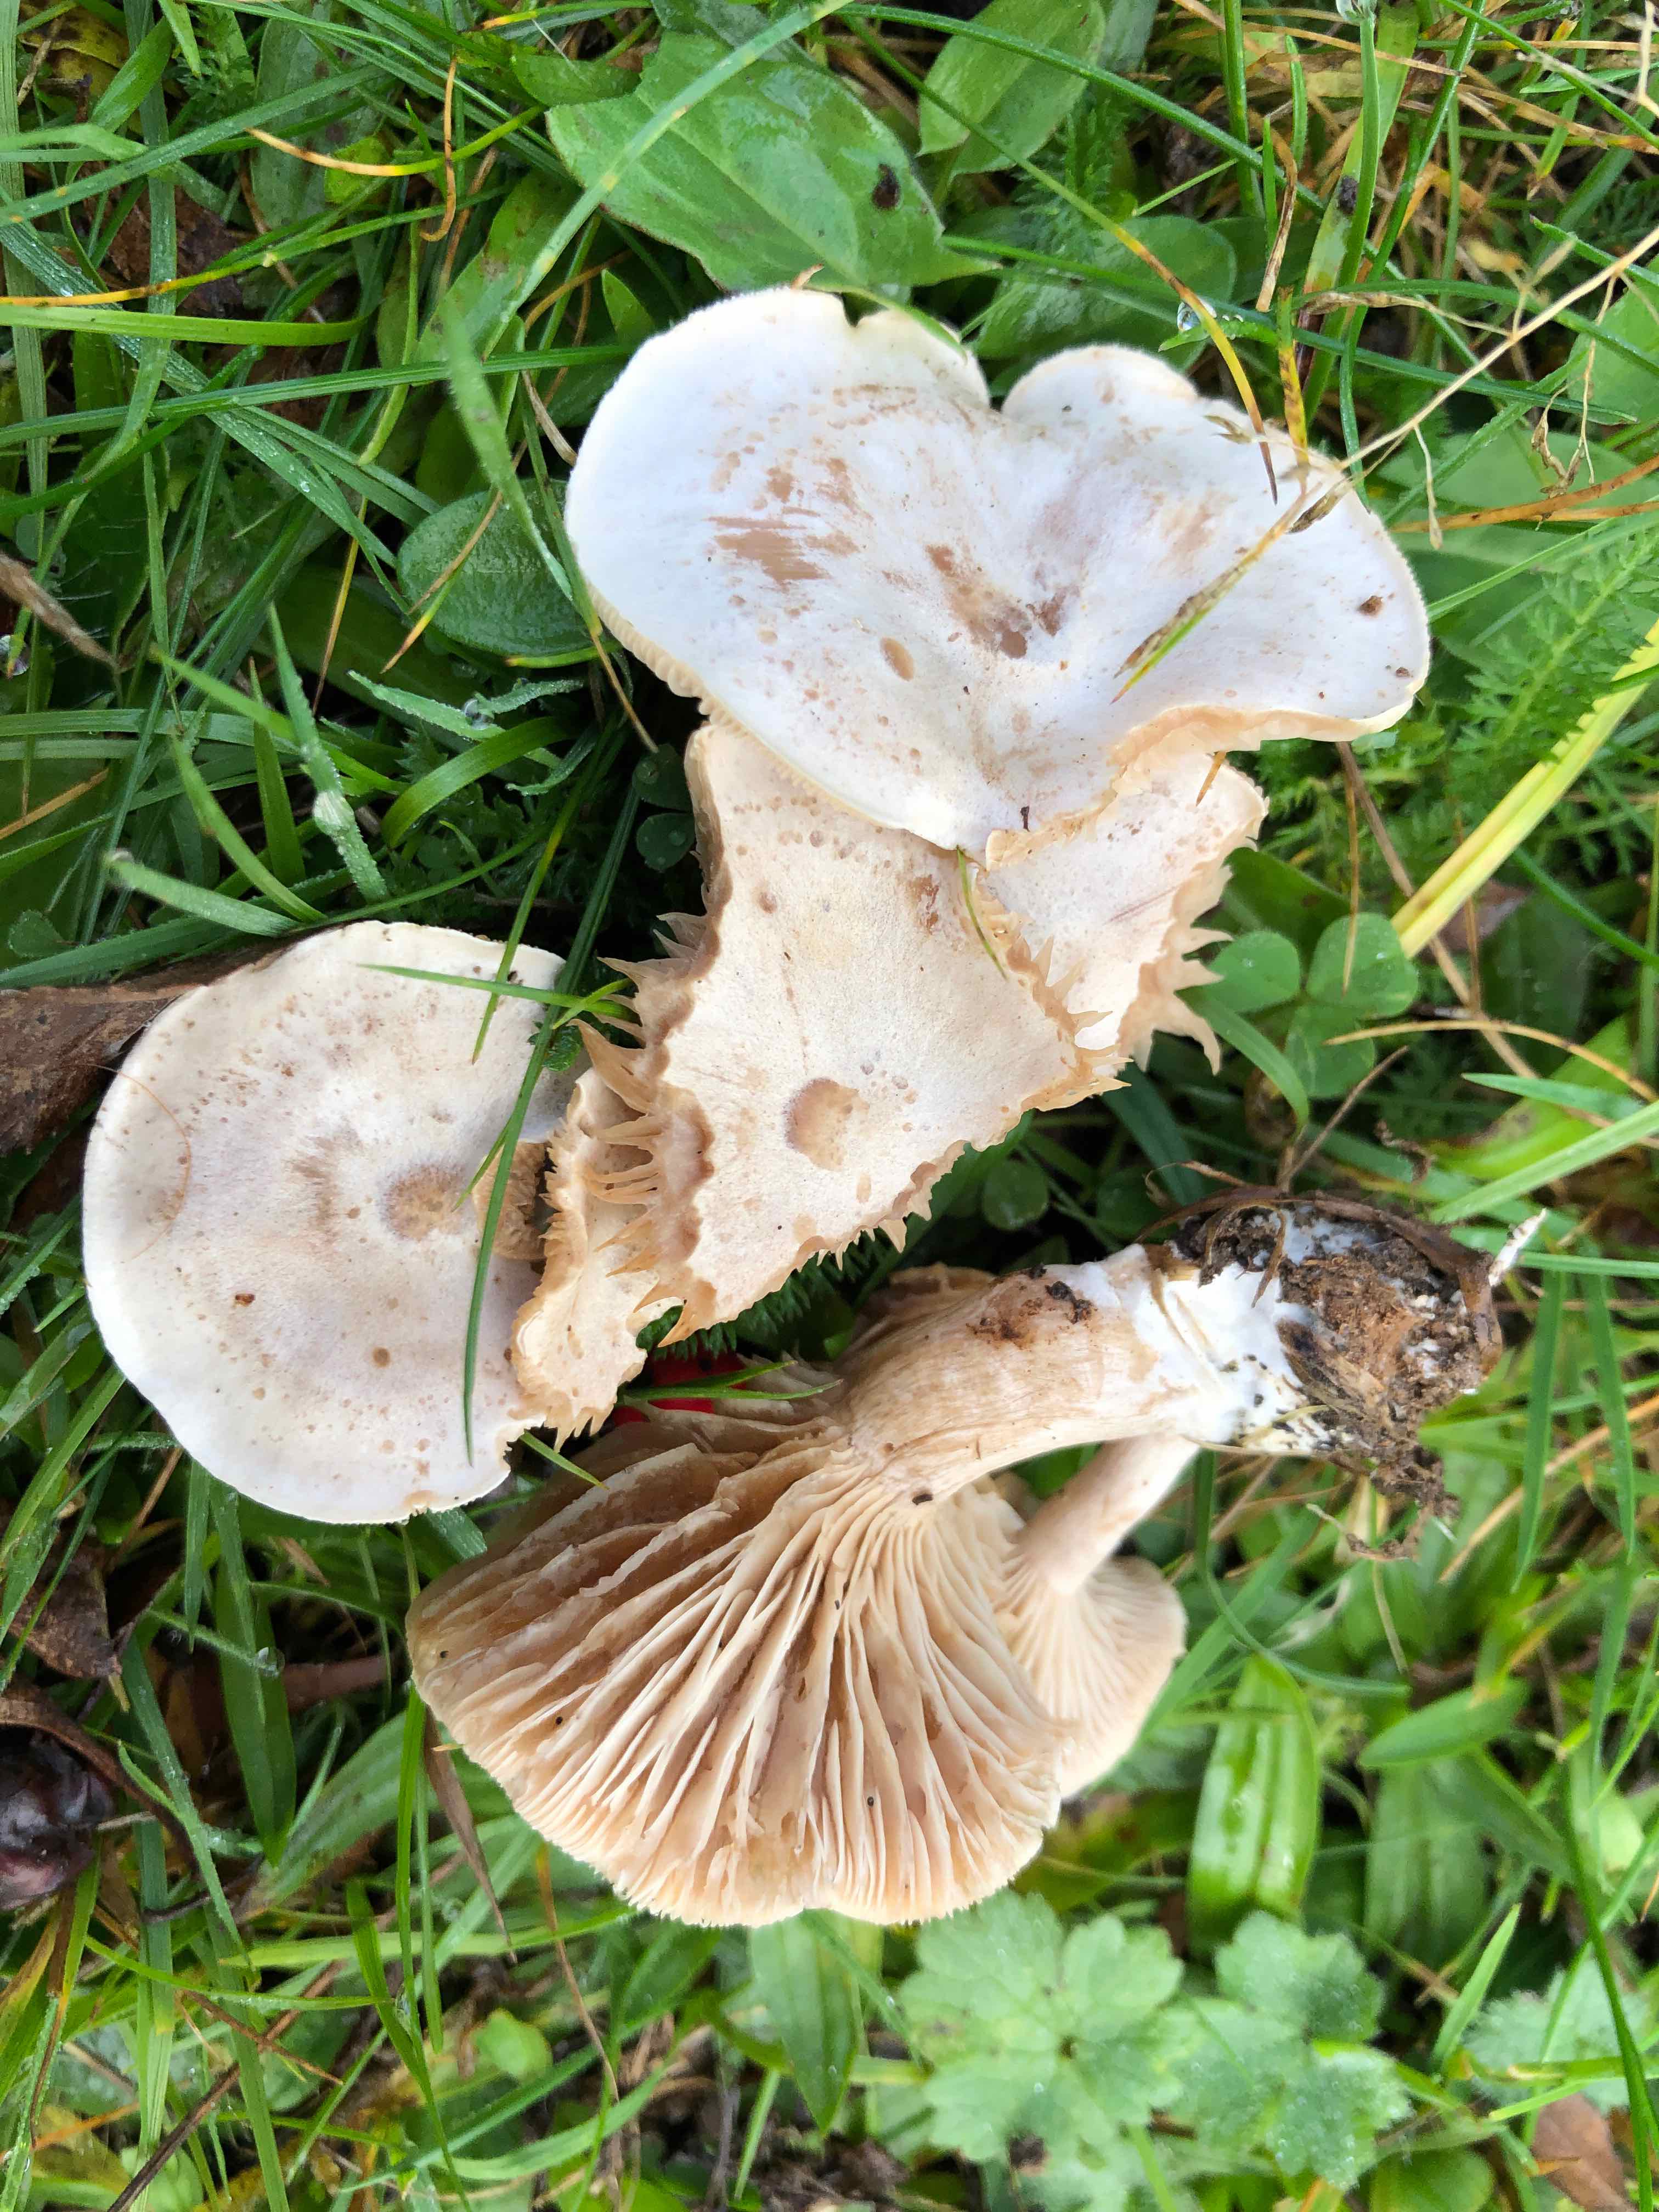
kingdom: Fungi
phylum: Basidiomycota
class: Agaricomycetes
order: Agaricales
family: Tricholomataceae
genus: Clitocybe
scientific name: Clitocybe rivulosa
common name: eng-tragthat
